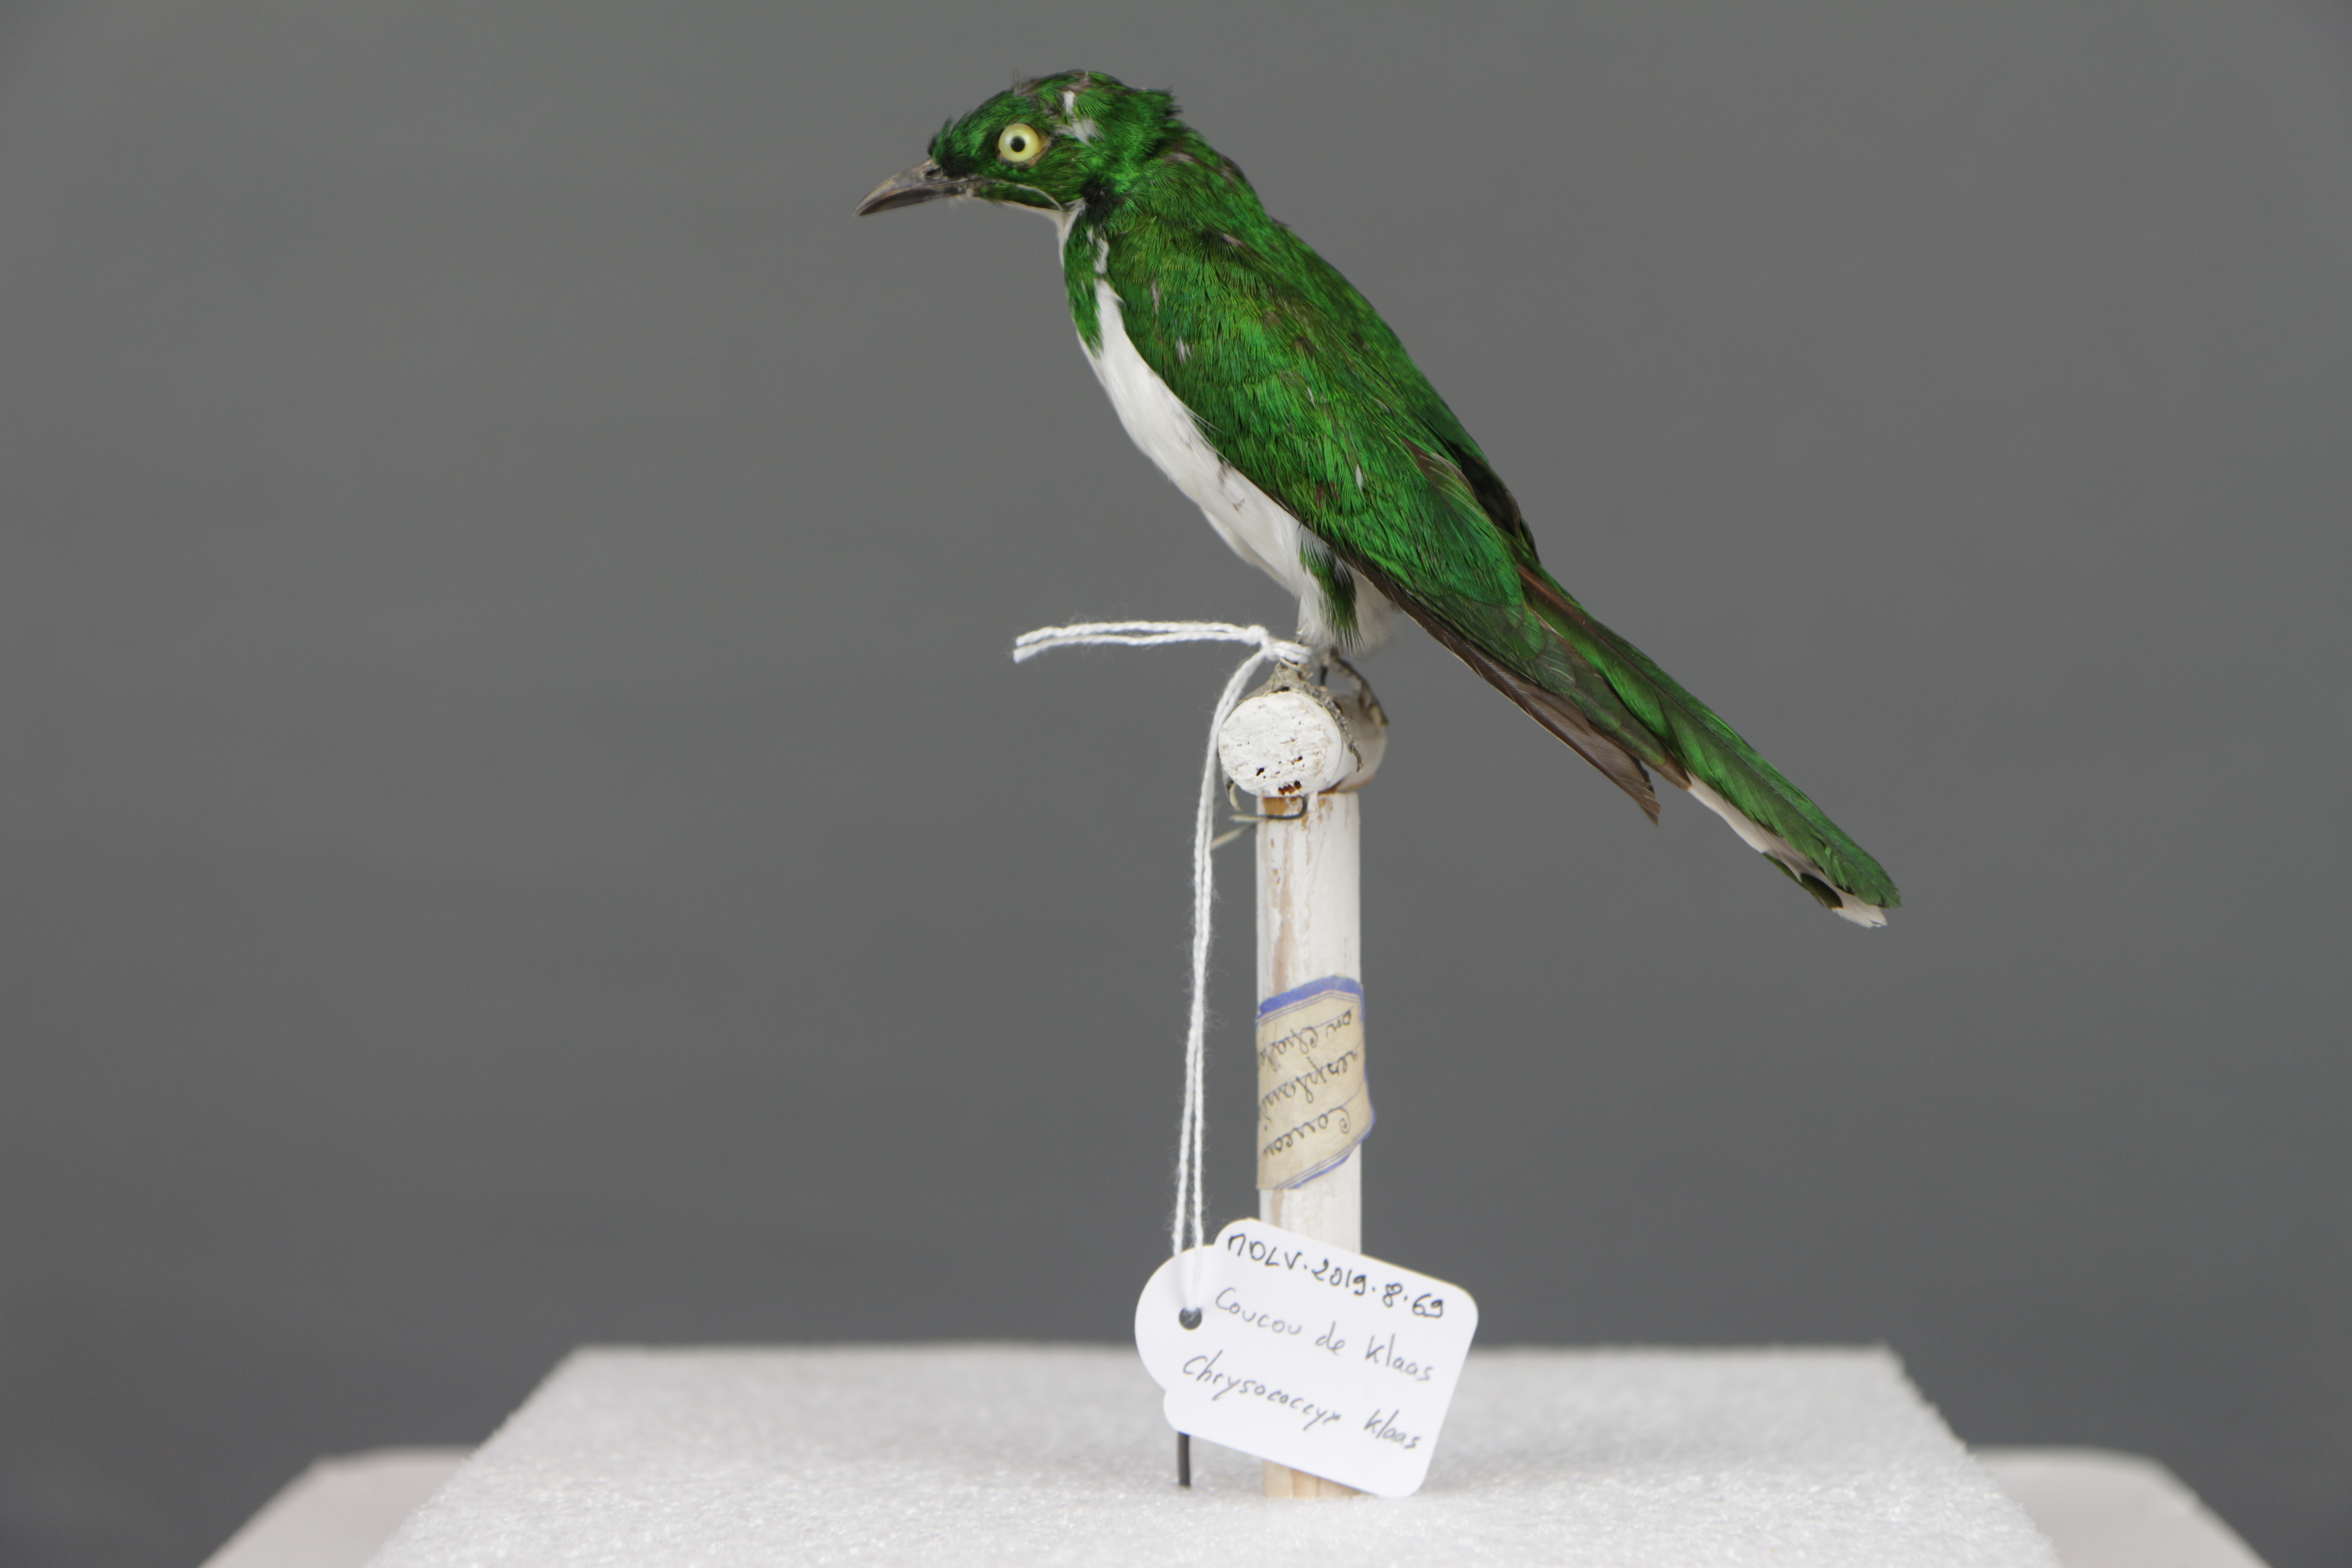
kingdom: Animalia
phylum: Chordata
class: Aves
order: Cuculiformes
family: Cuculidae
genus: Chrysococcyx
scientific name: Chrysococcyx klaas
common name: Klaas's cuckoo
